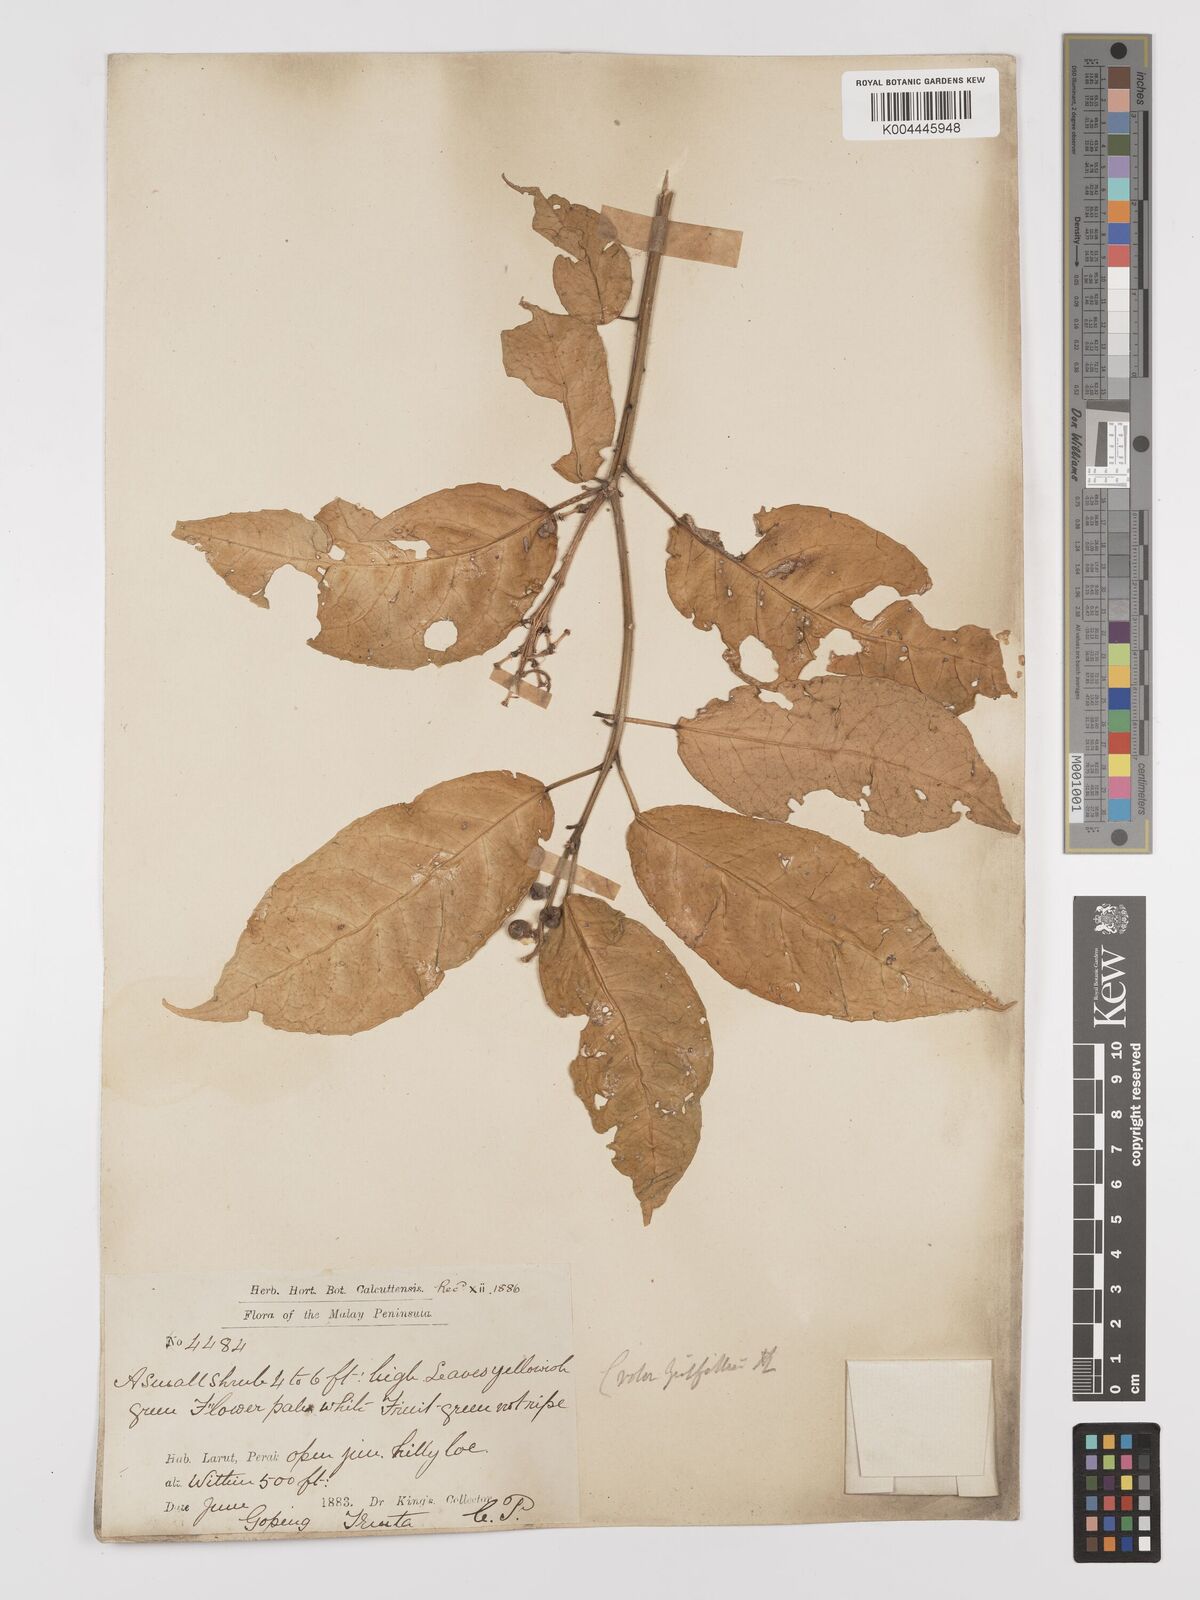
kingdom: Plantae
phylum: Tracheophyta
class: Magnoliopsida
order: Malpighiales
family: Euphorbiaceae
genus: Croton
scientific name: Croton griffithii
